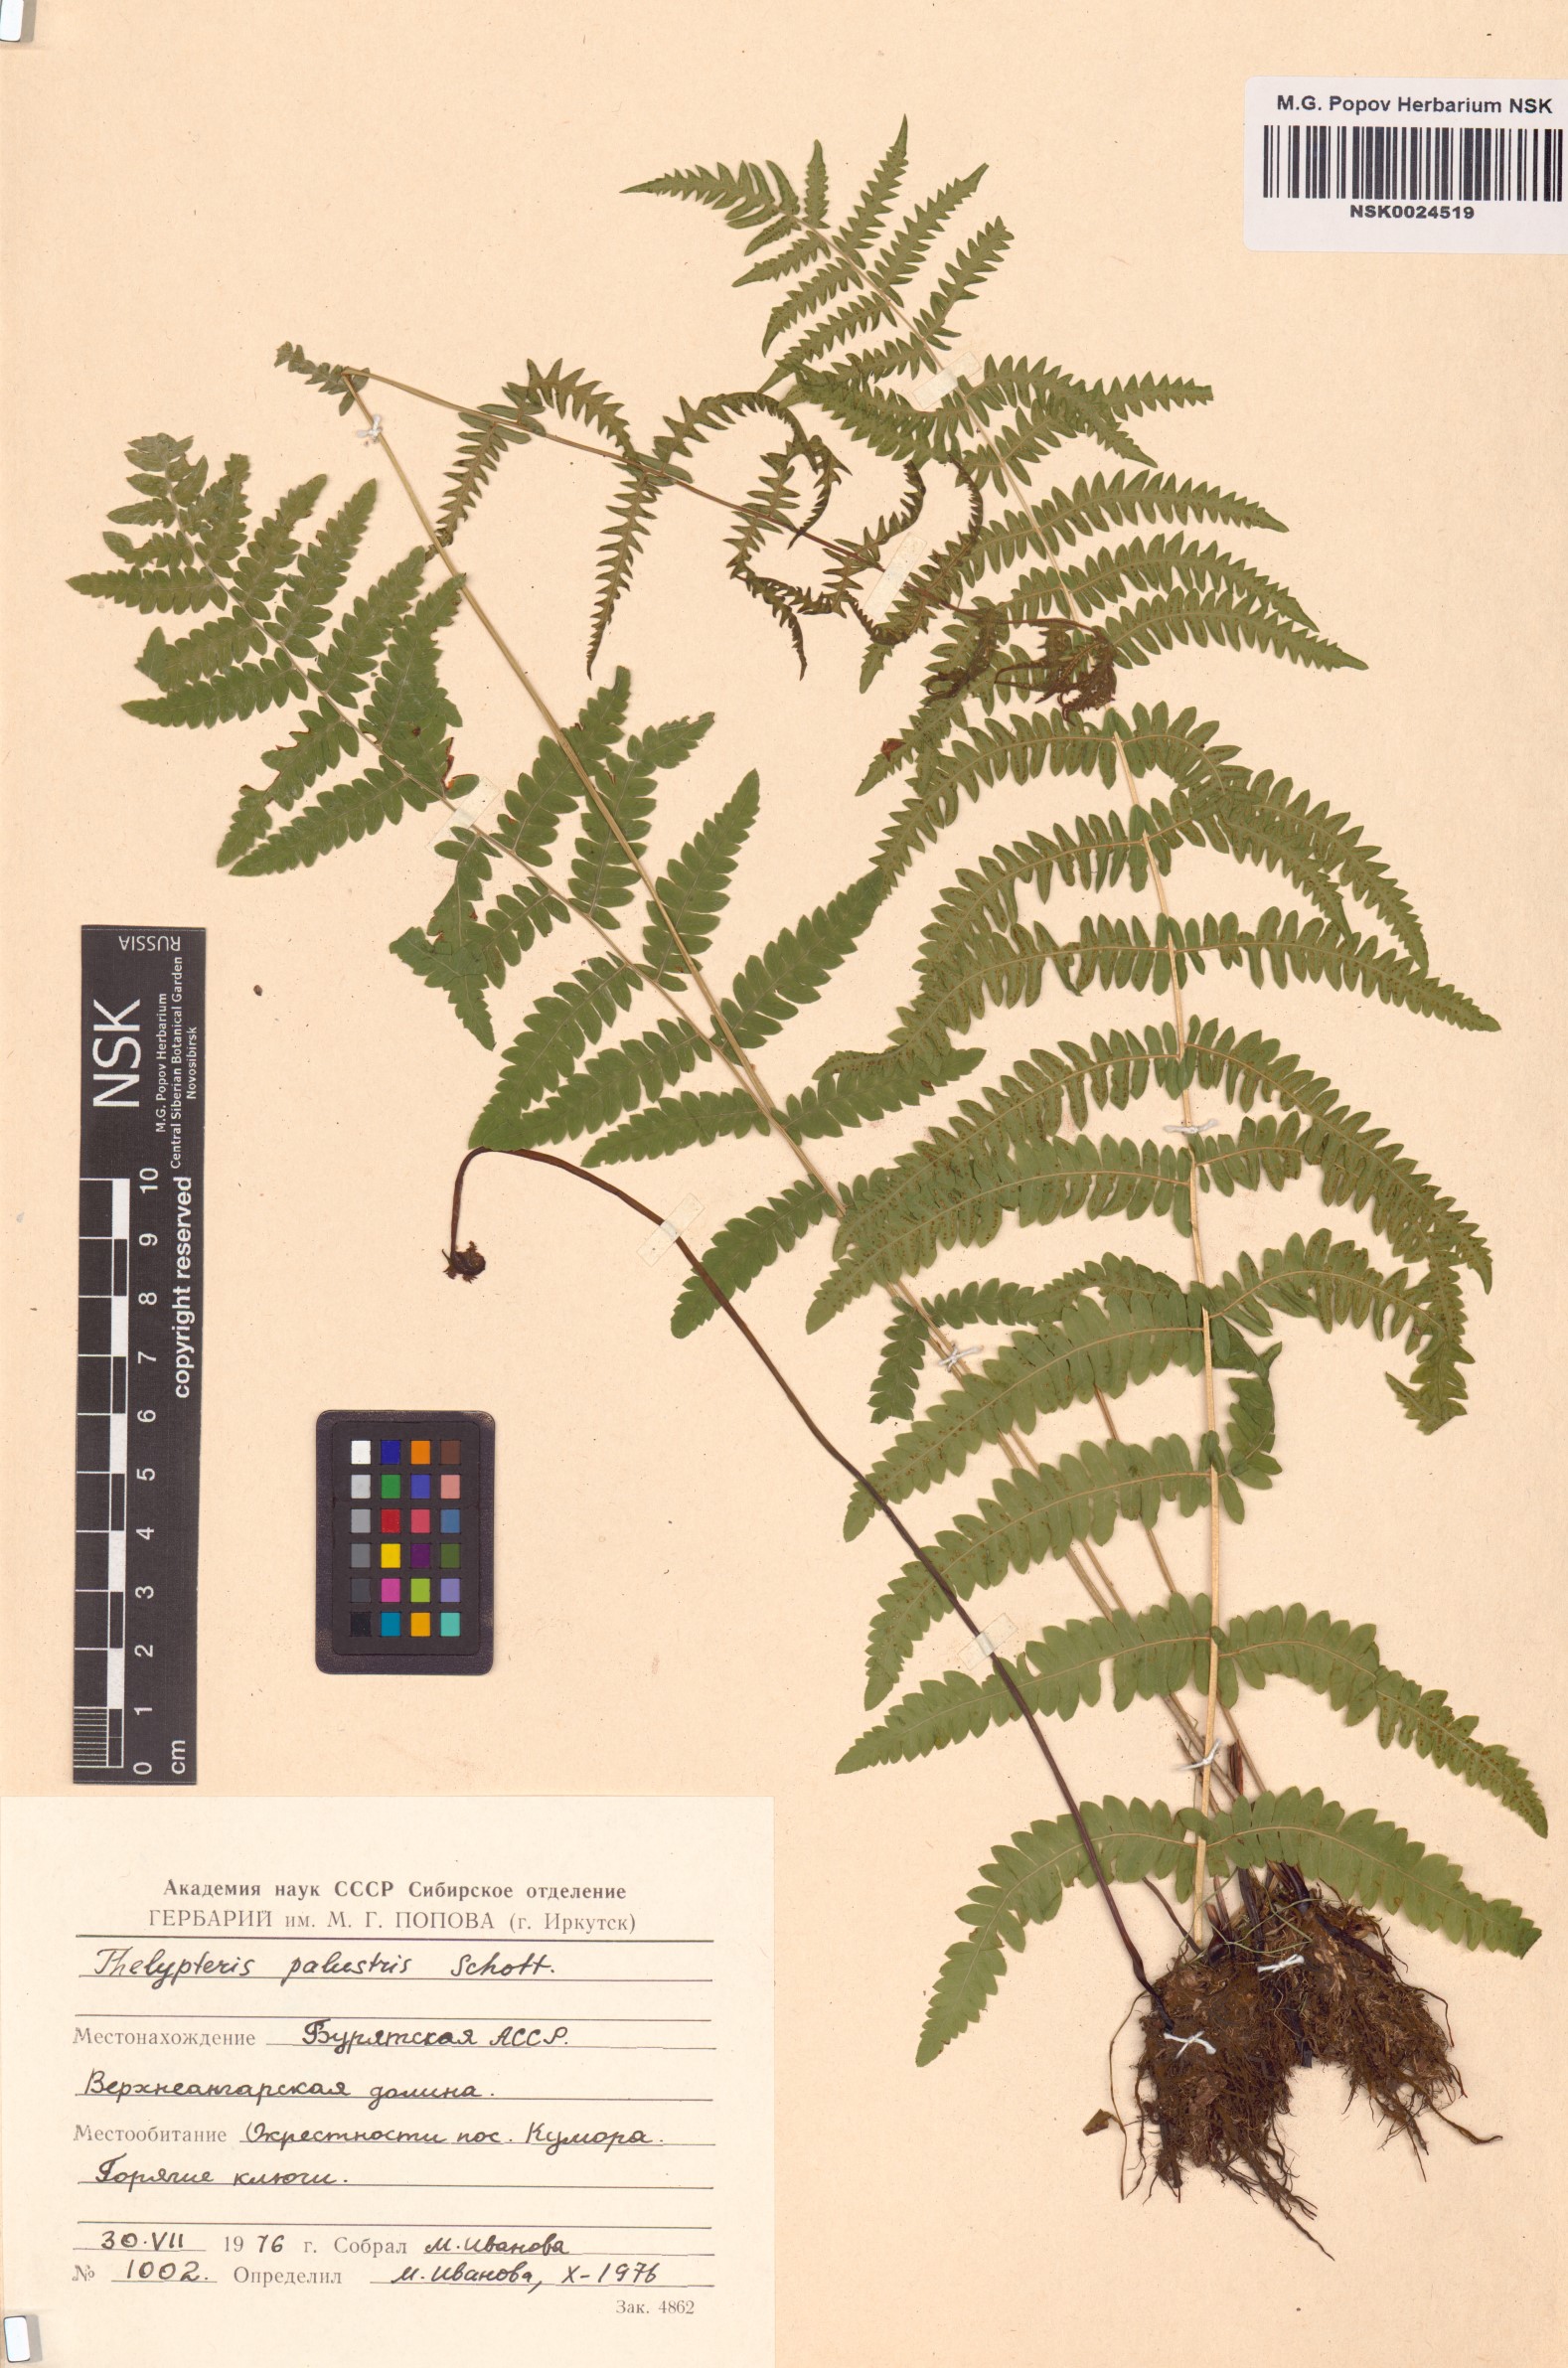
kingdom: Plantae
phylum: Tracheophyta
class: Polypodiopsida
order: Polypodiales
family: Thelypteridaceae
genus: Thelypteris
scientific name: Thelypteris palustris
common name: Marsh fern
